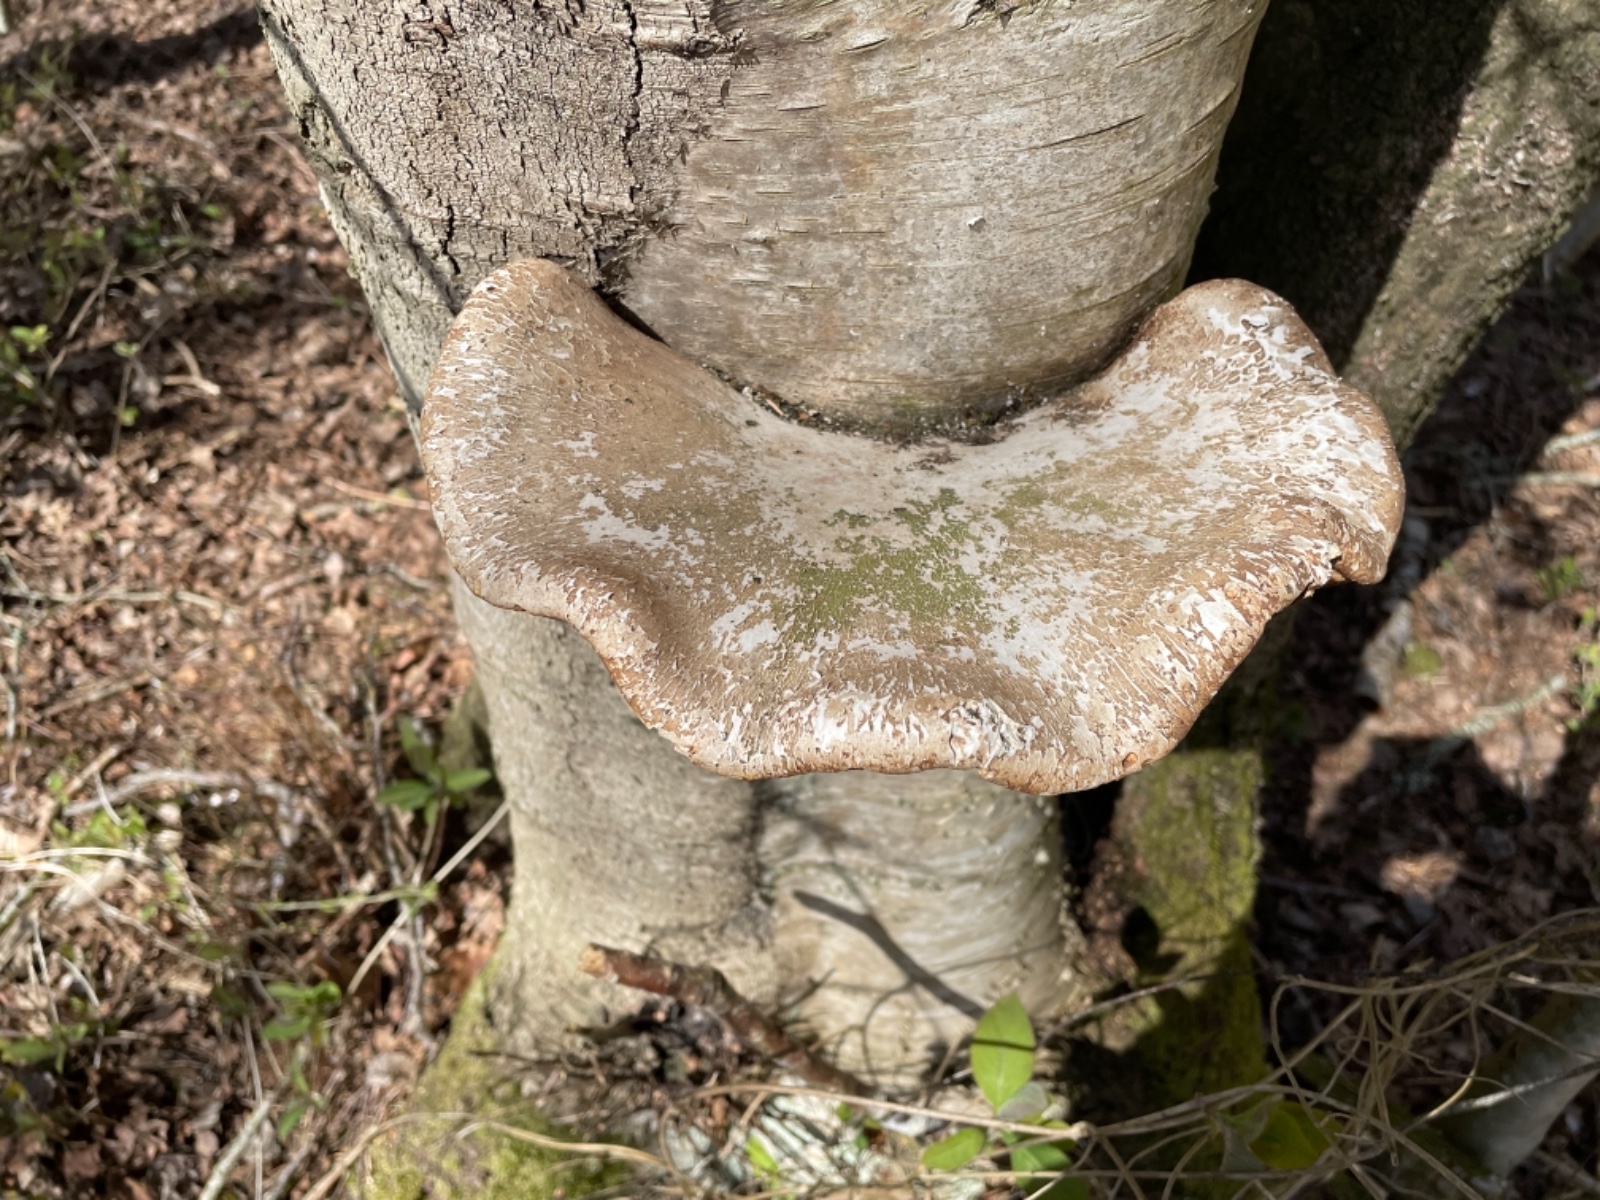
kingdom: Fungi
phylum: Basidiomycota
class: Agaricomycetes
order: Polyporales
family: Fomitopsidaceae
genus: Fomitopsis
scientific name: Fomitopsis betulina
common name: birkeporesvamp
